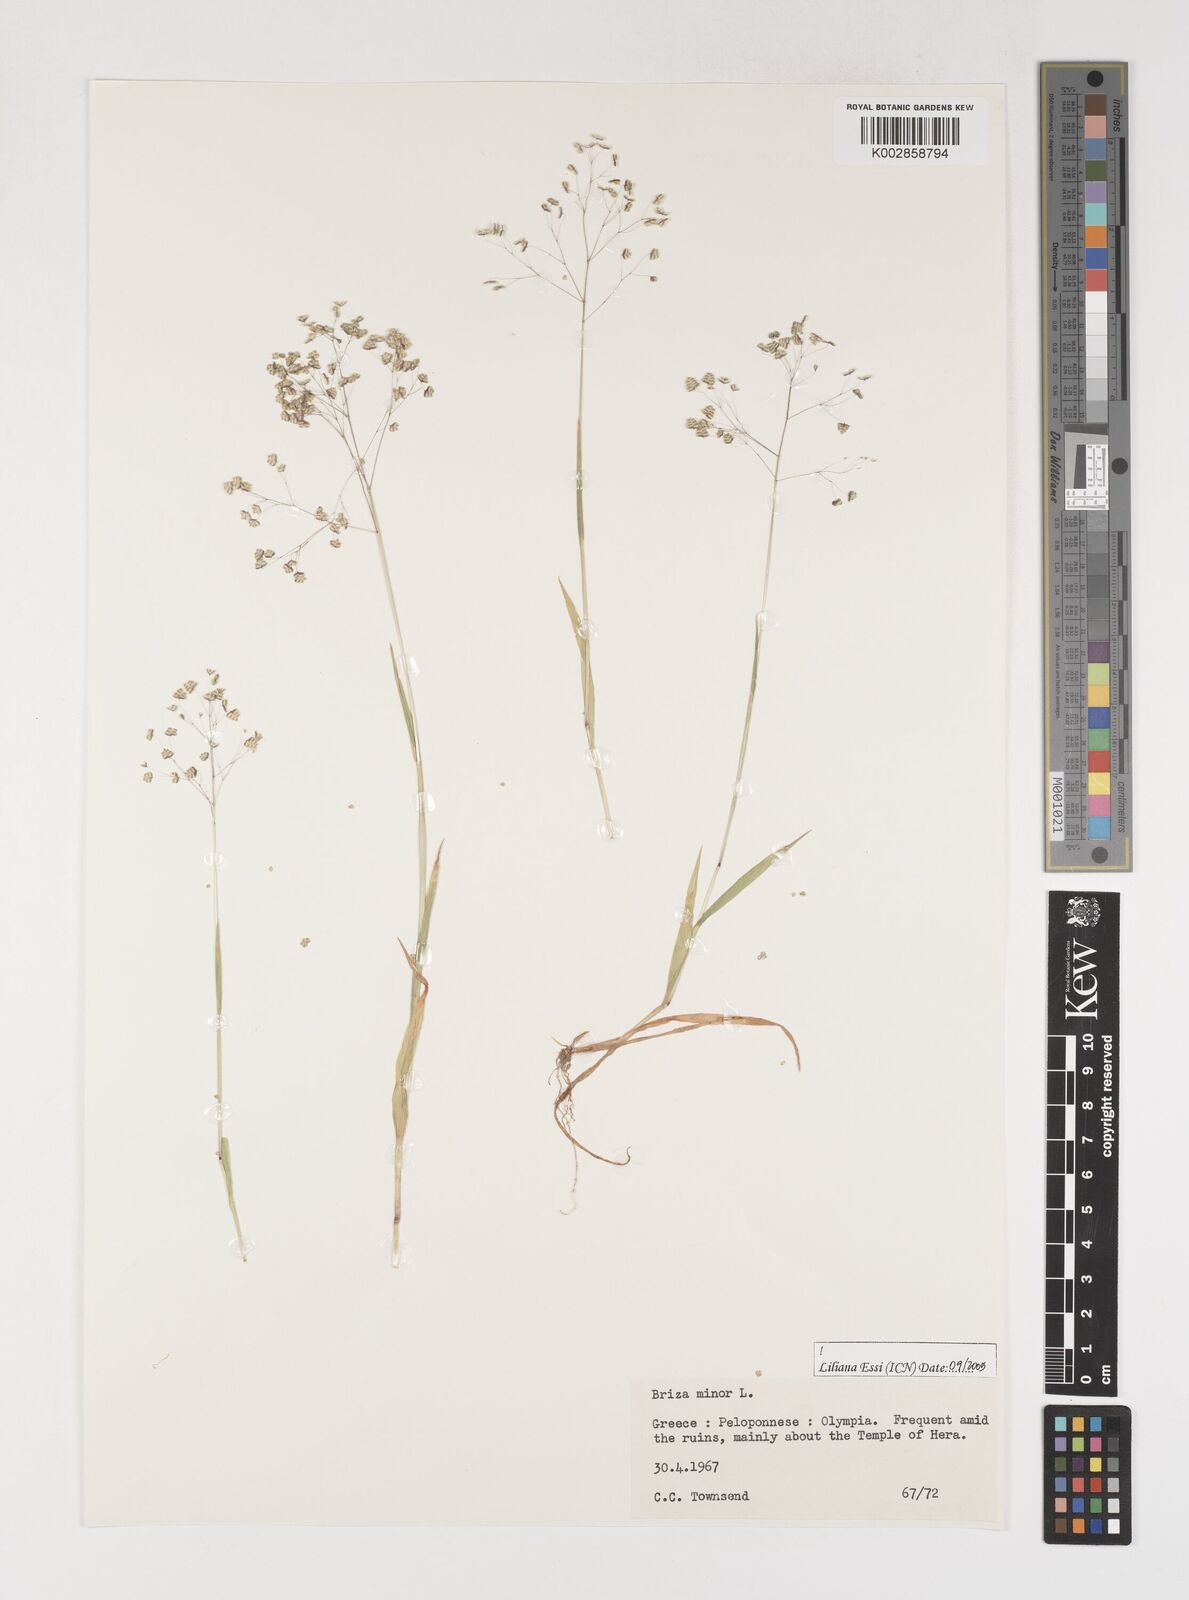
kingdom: Plantae
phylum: Tracheophyta
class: Liliopsida
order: Poales
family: Poaceae
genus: Briza
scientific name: Briza minor
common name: Lesser quaking-grass
